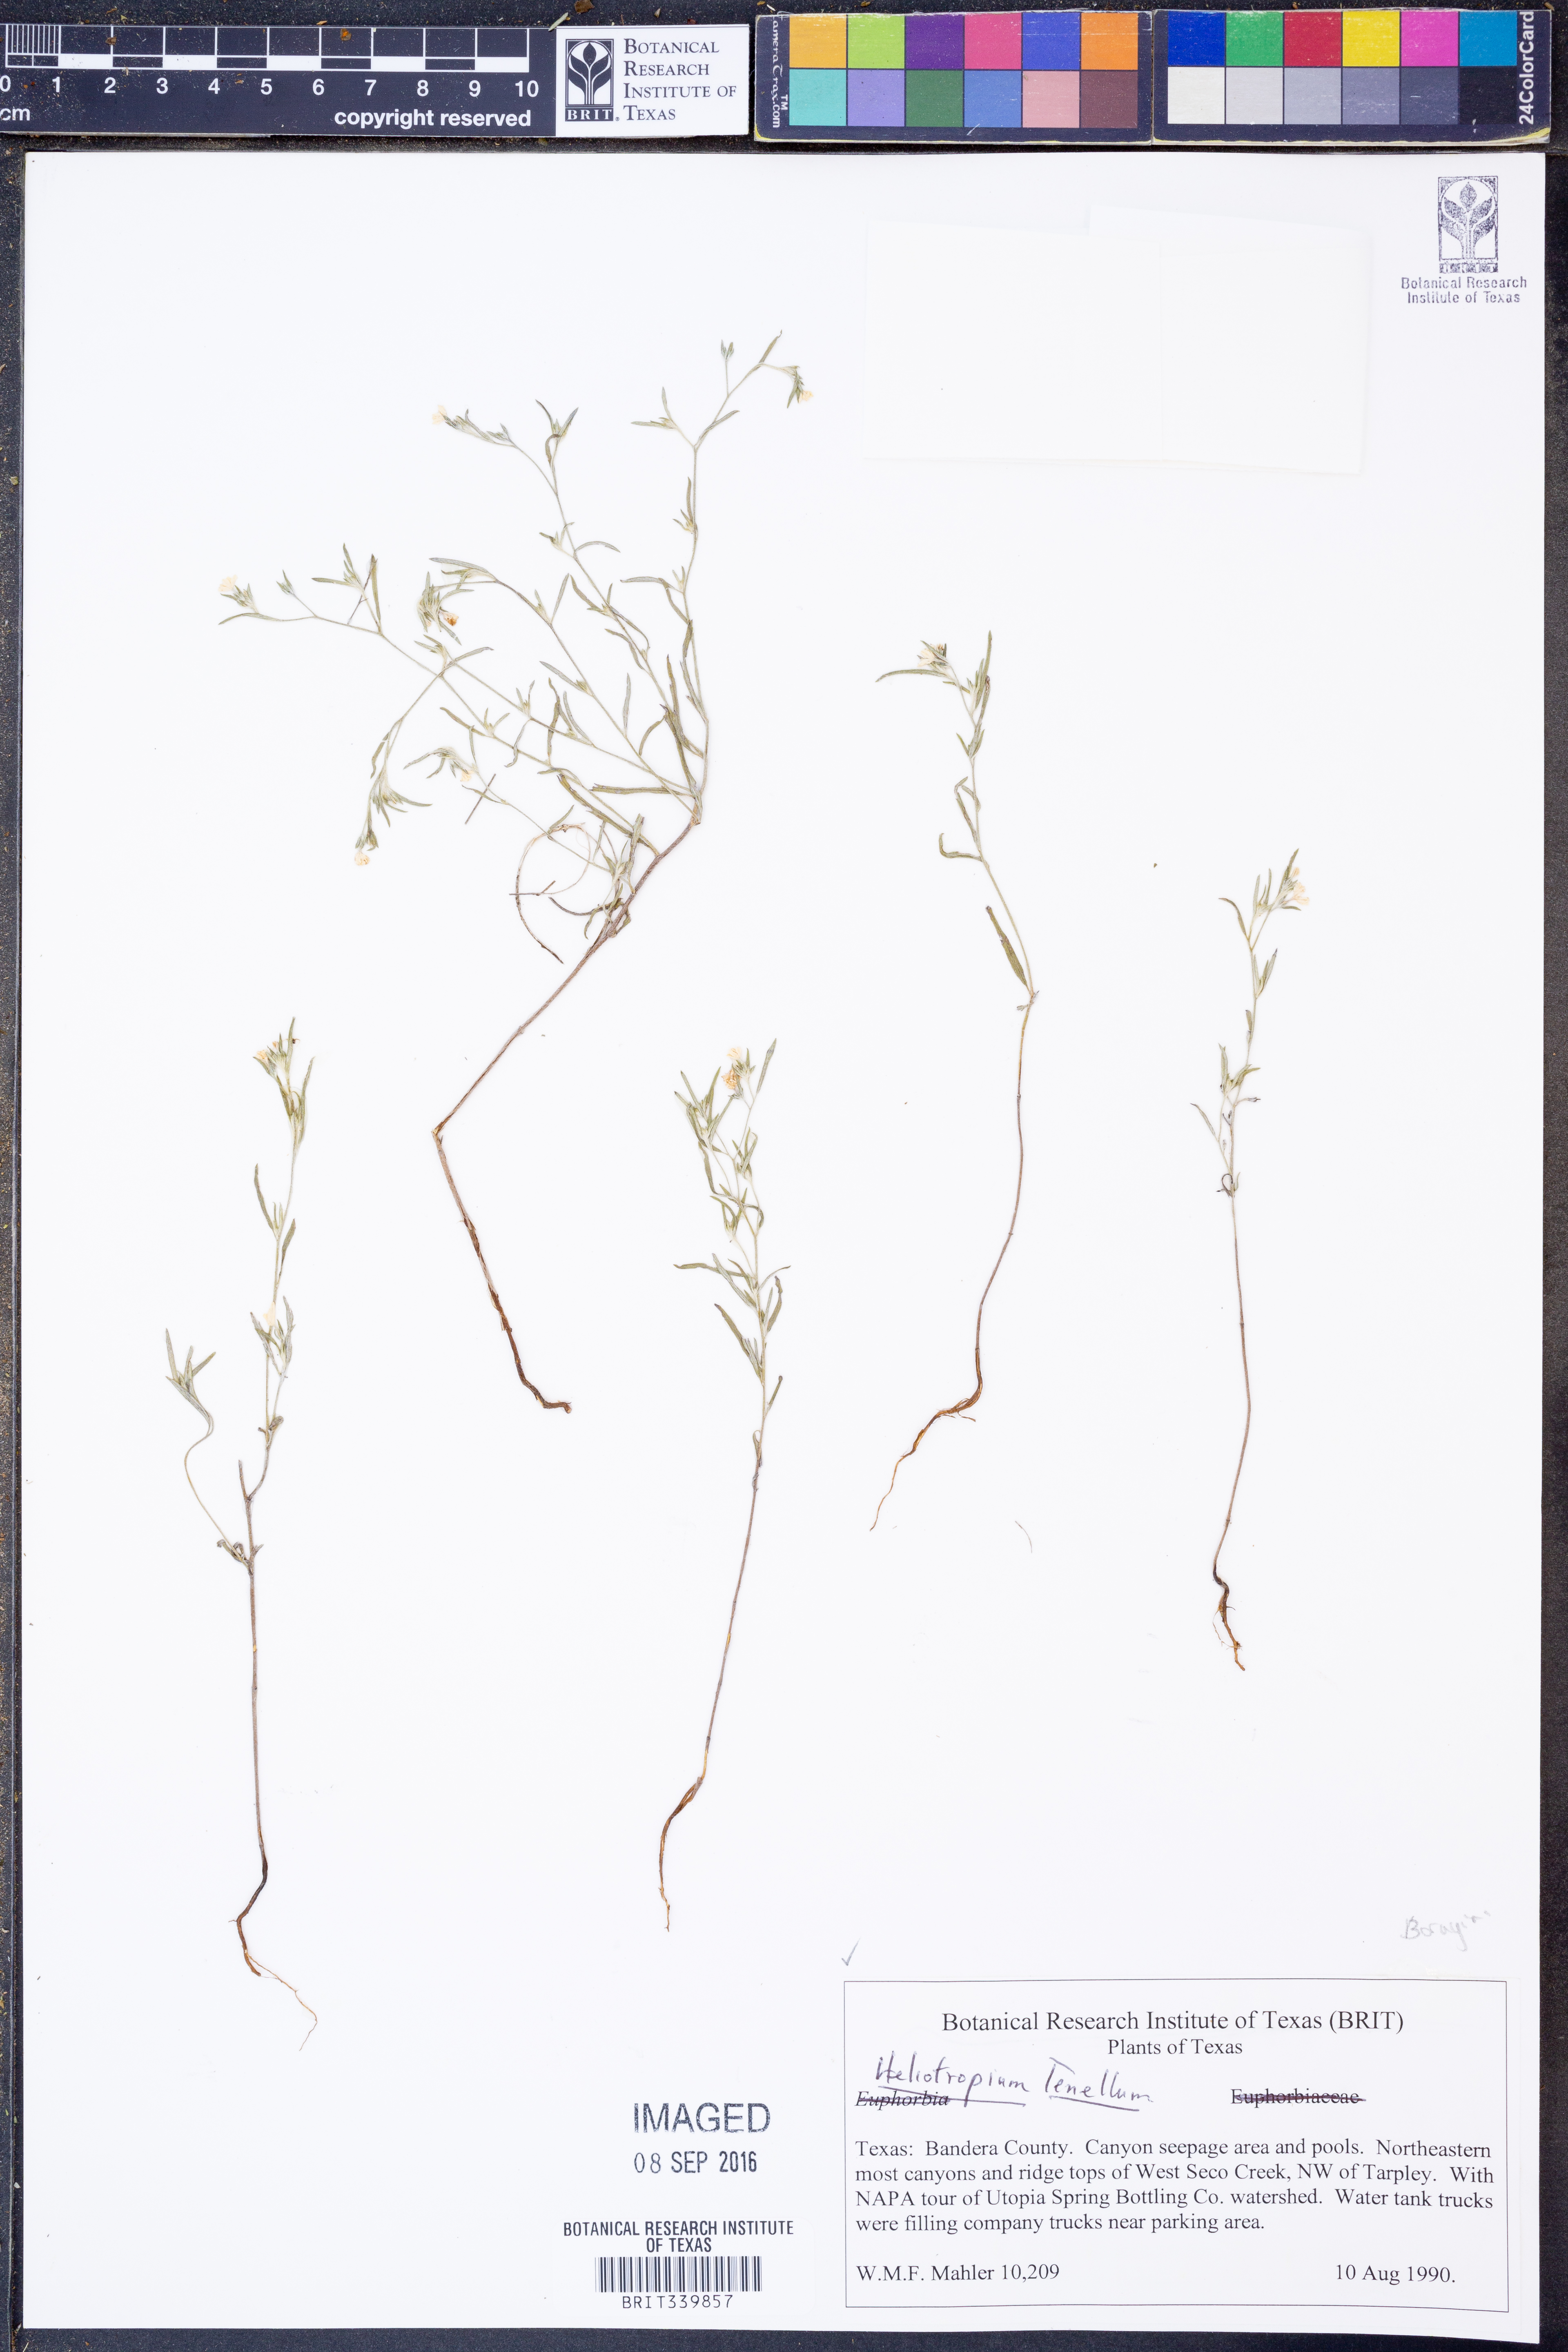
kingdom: Plantae
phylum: Tracheophyta
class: Magnoliopsida
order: Boraginales
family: Heliotropiaceae
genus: Euploca
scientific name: Euploca tenella
